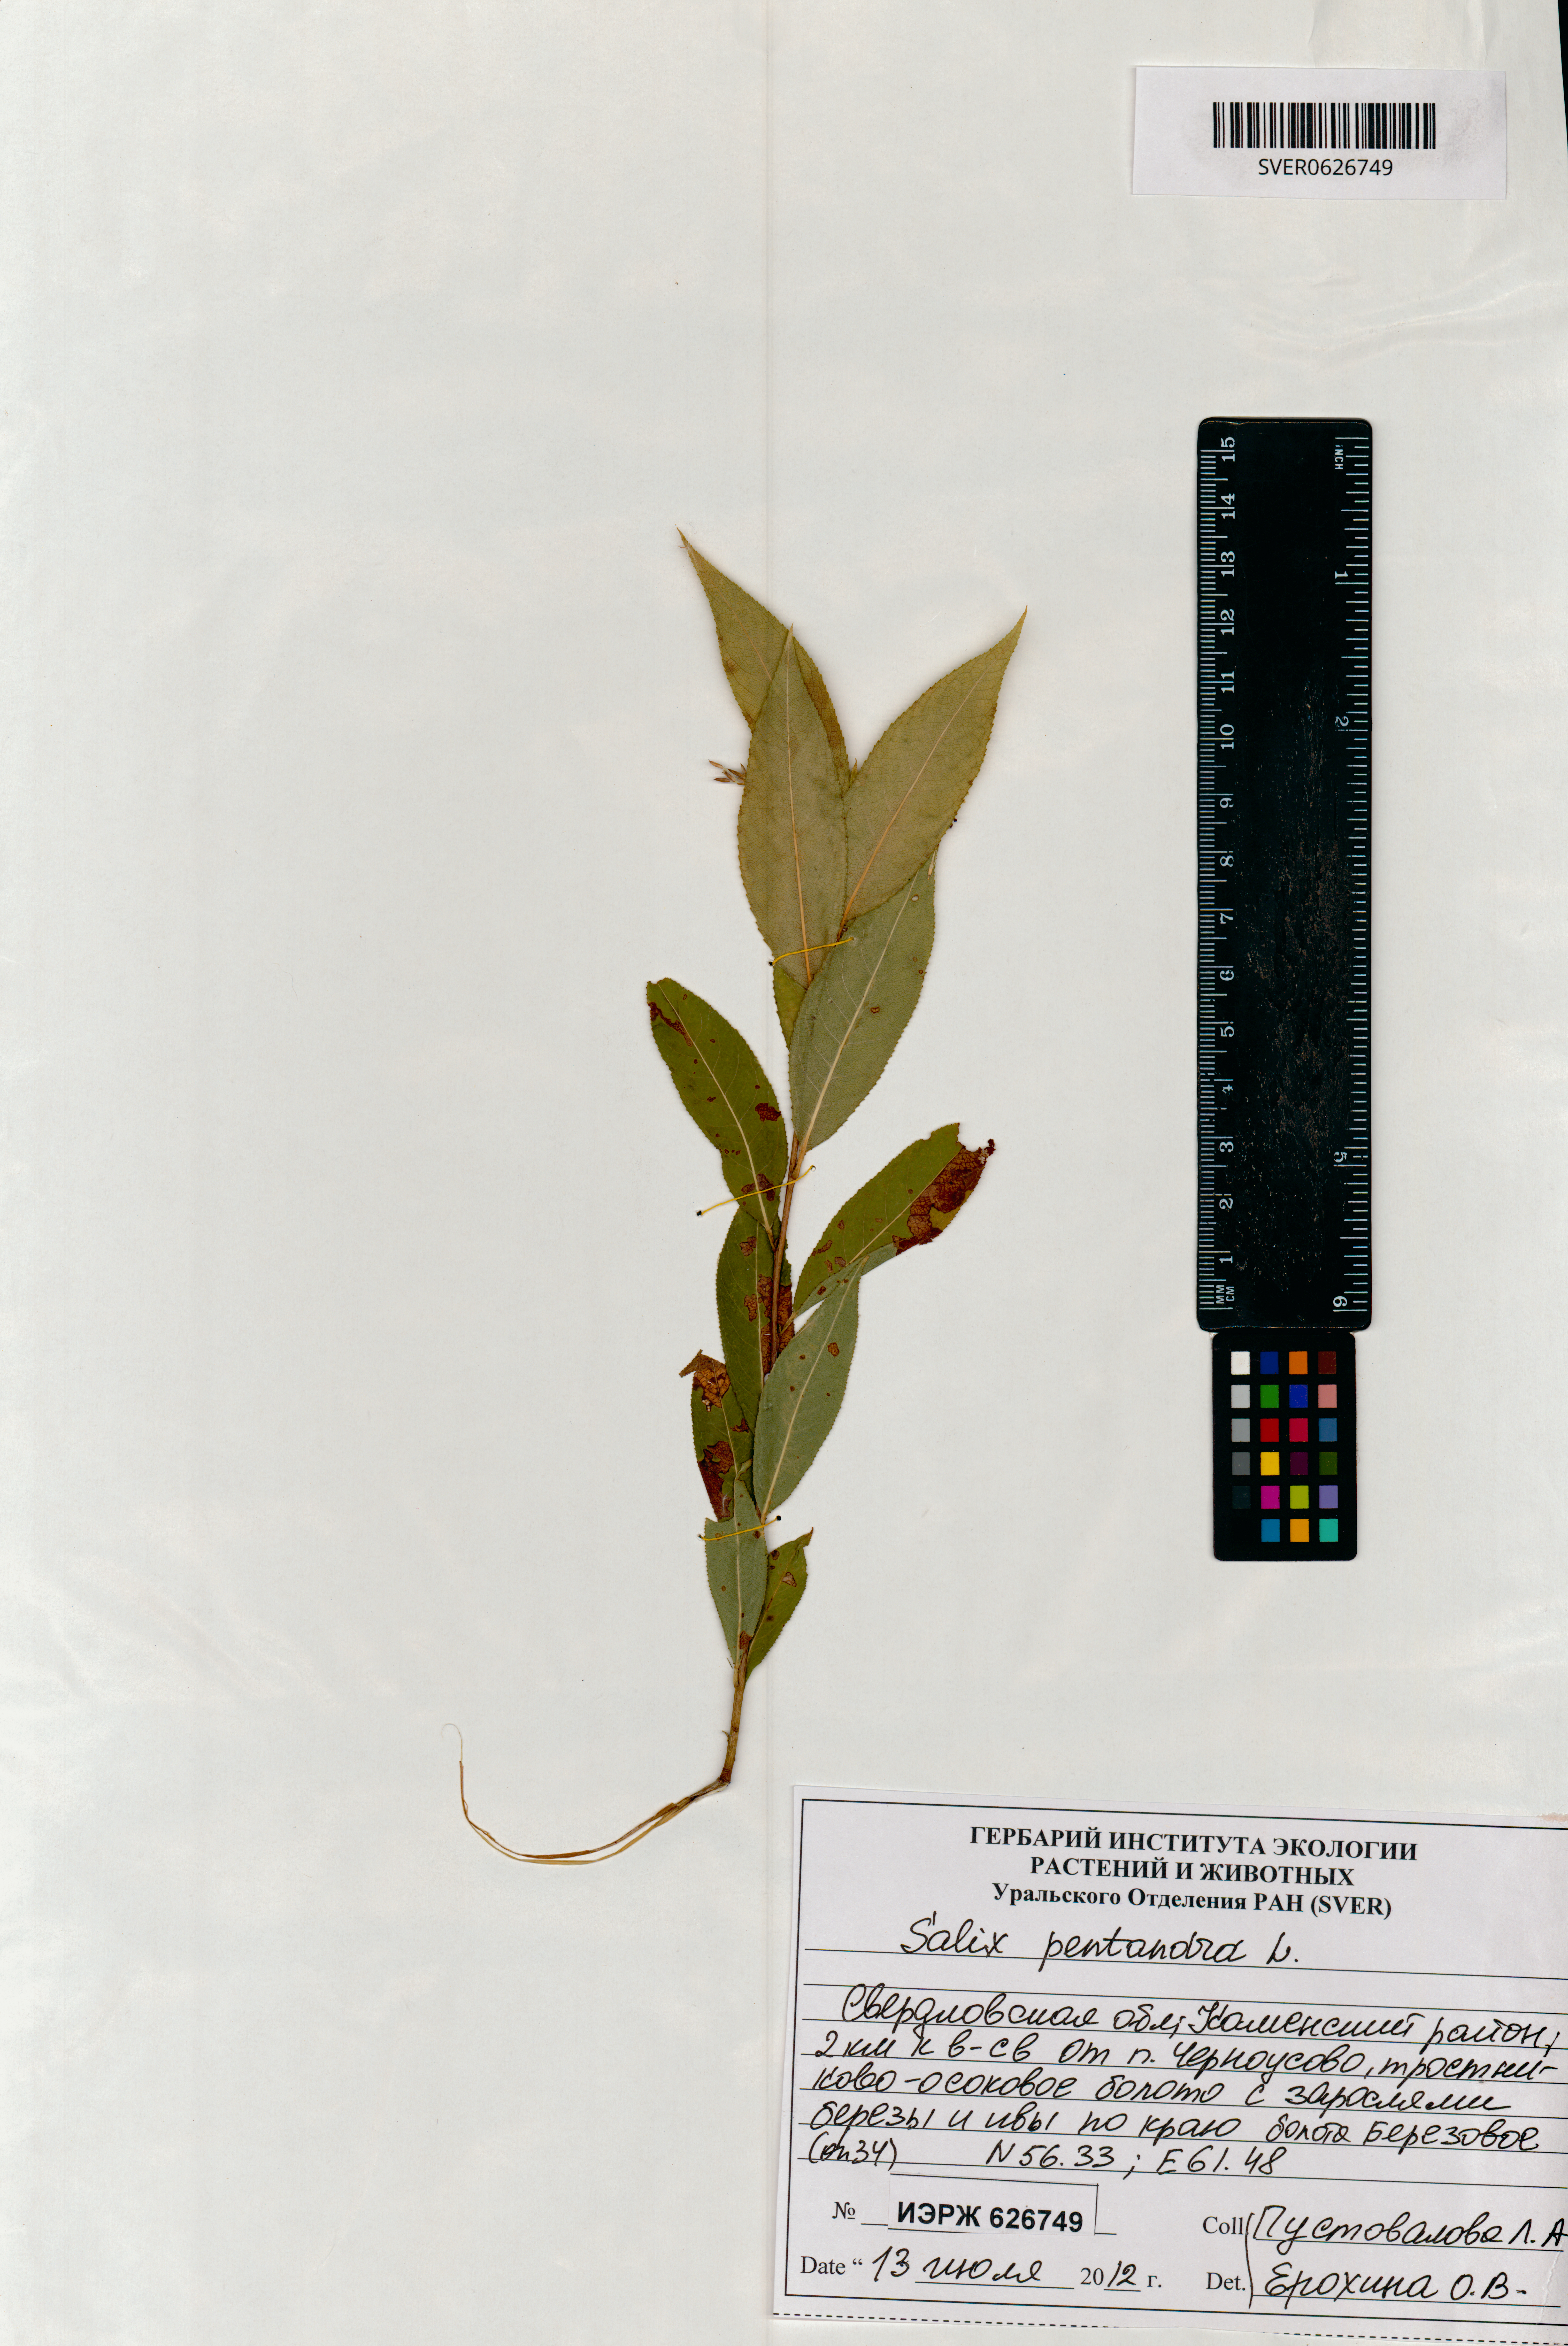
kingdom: Plantae
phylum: Tracheophyta
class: Magnoliopsida
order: Malpighiales
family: Salicaceae
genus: Salix
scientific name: Salix pentandra
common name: Bay willow
